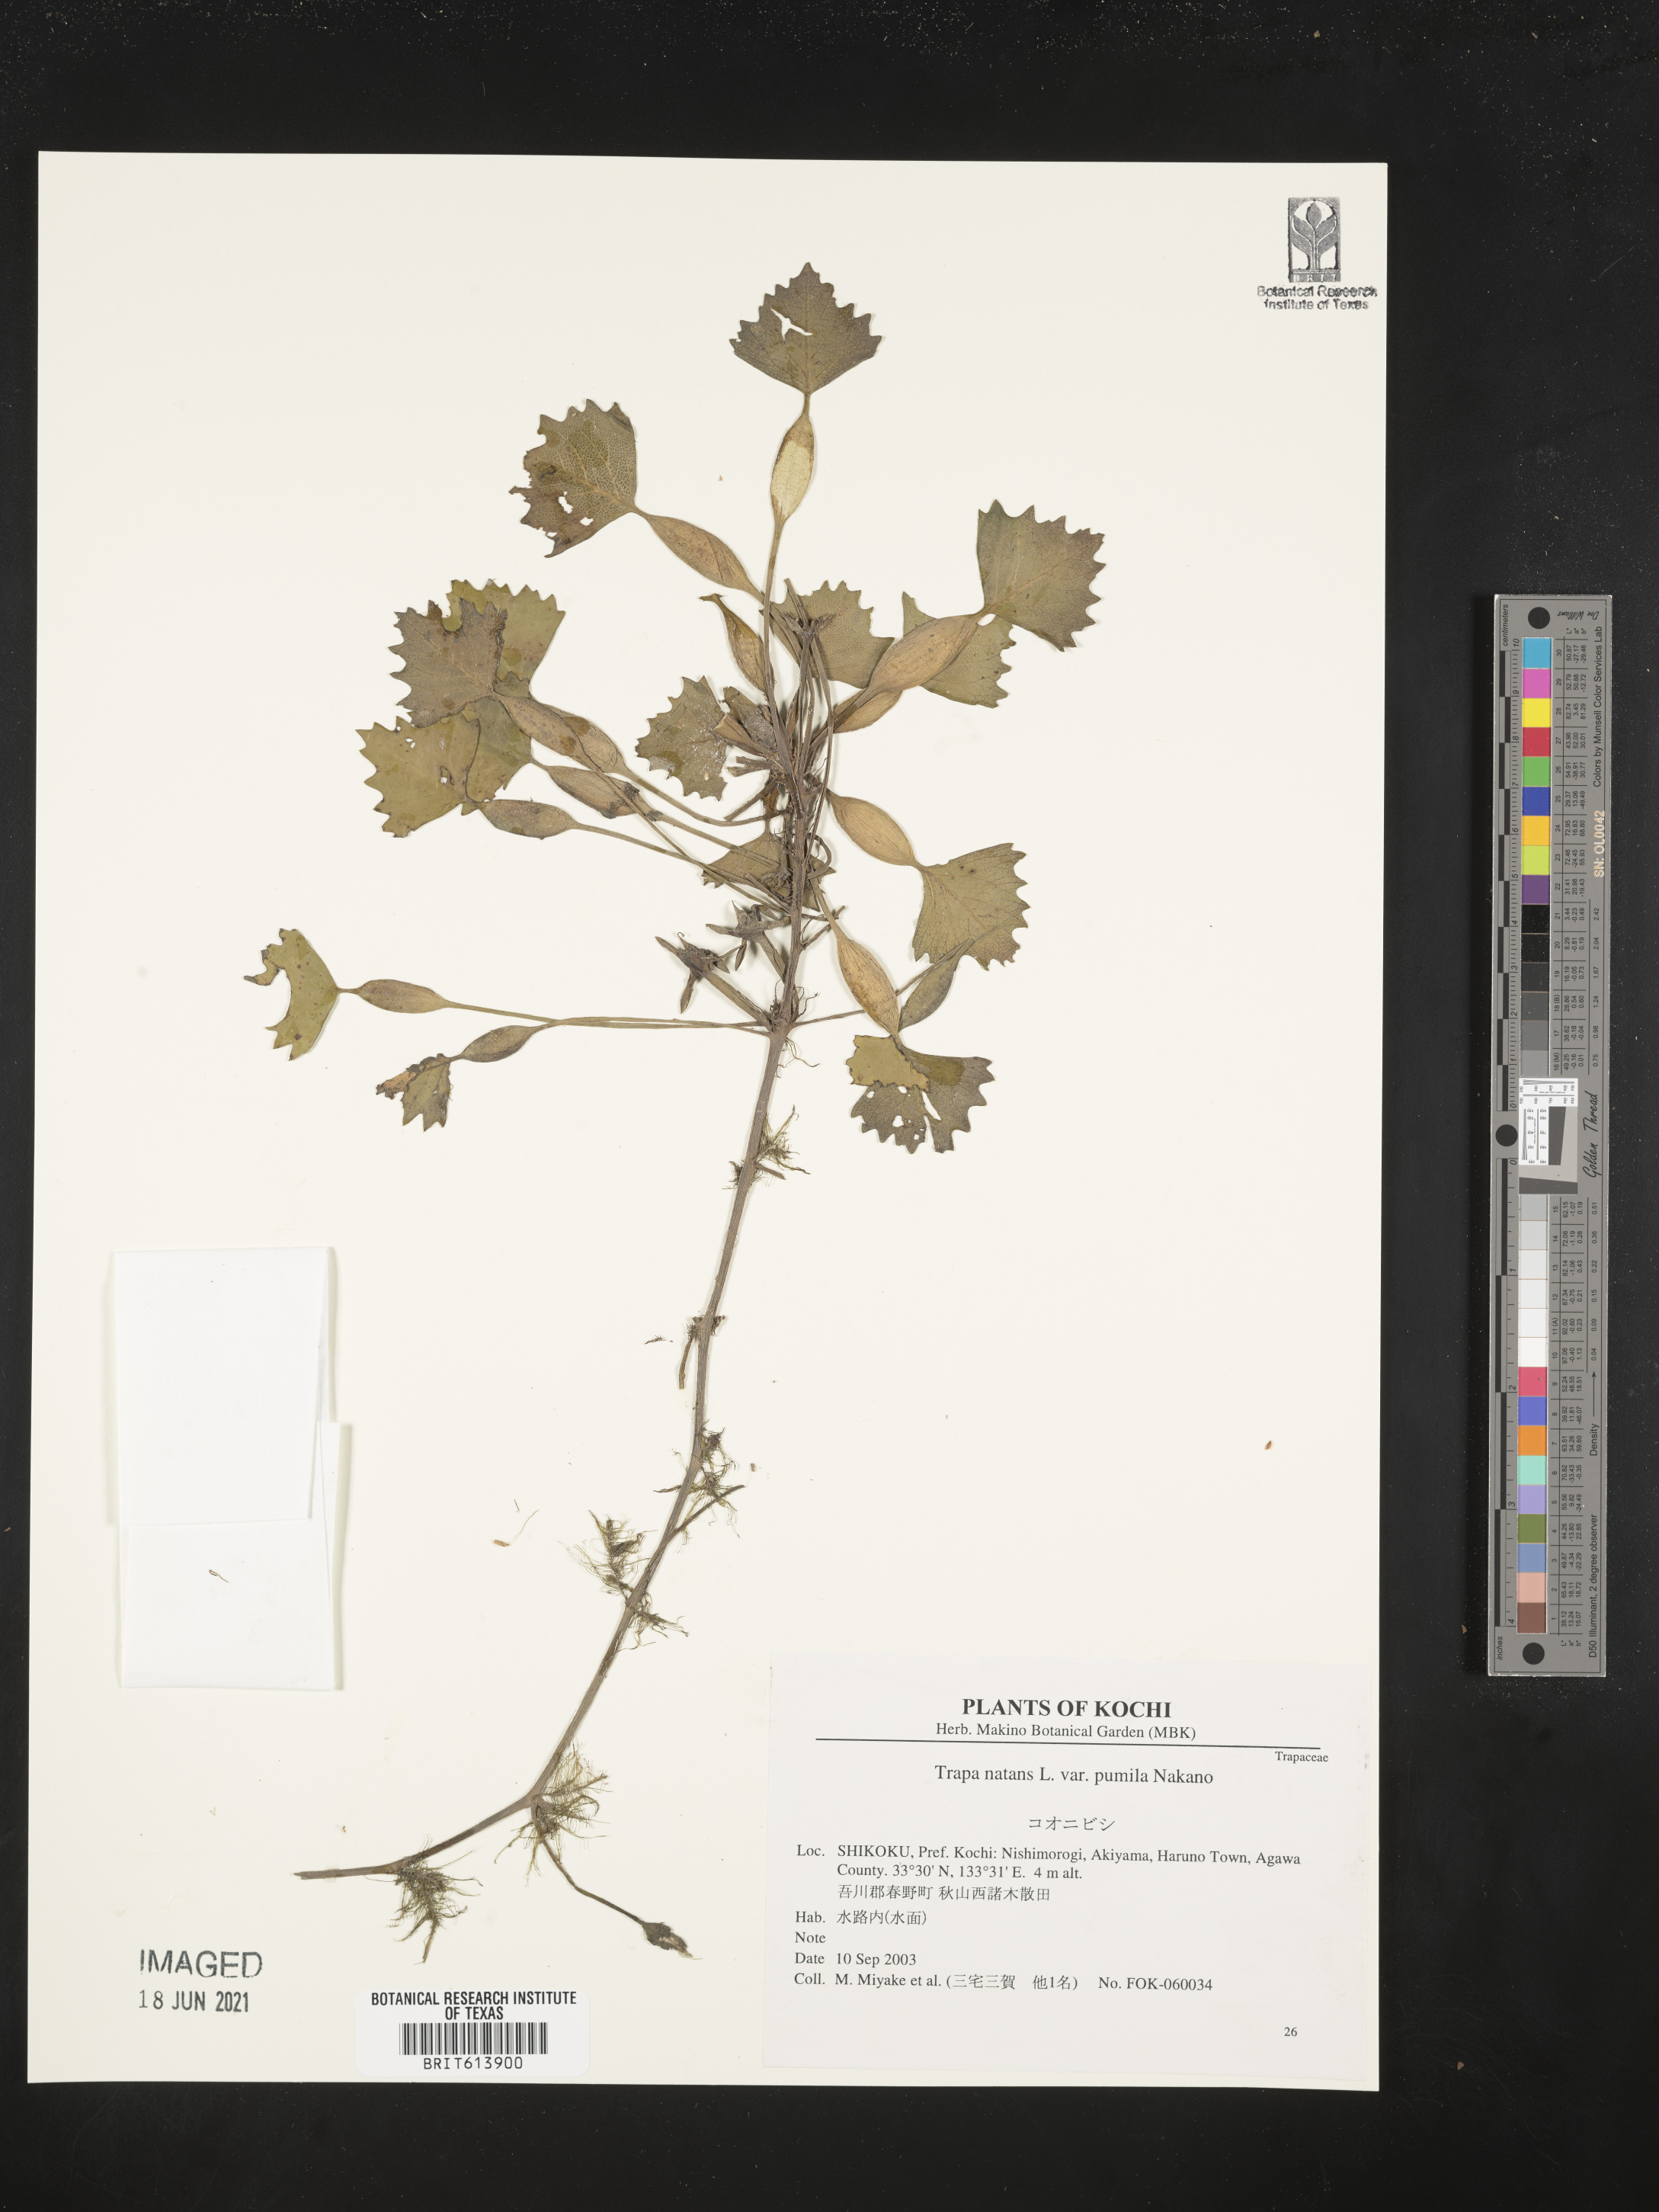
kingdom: Plantae
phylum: Tracheophyta
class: Magnoliopsida
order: Myrtales
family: Lythraceae
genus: Trapa
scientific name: Trapa natans
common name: Water chestnut
